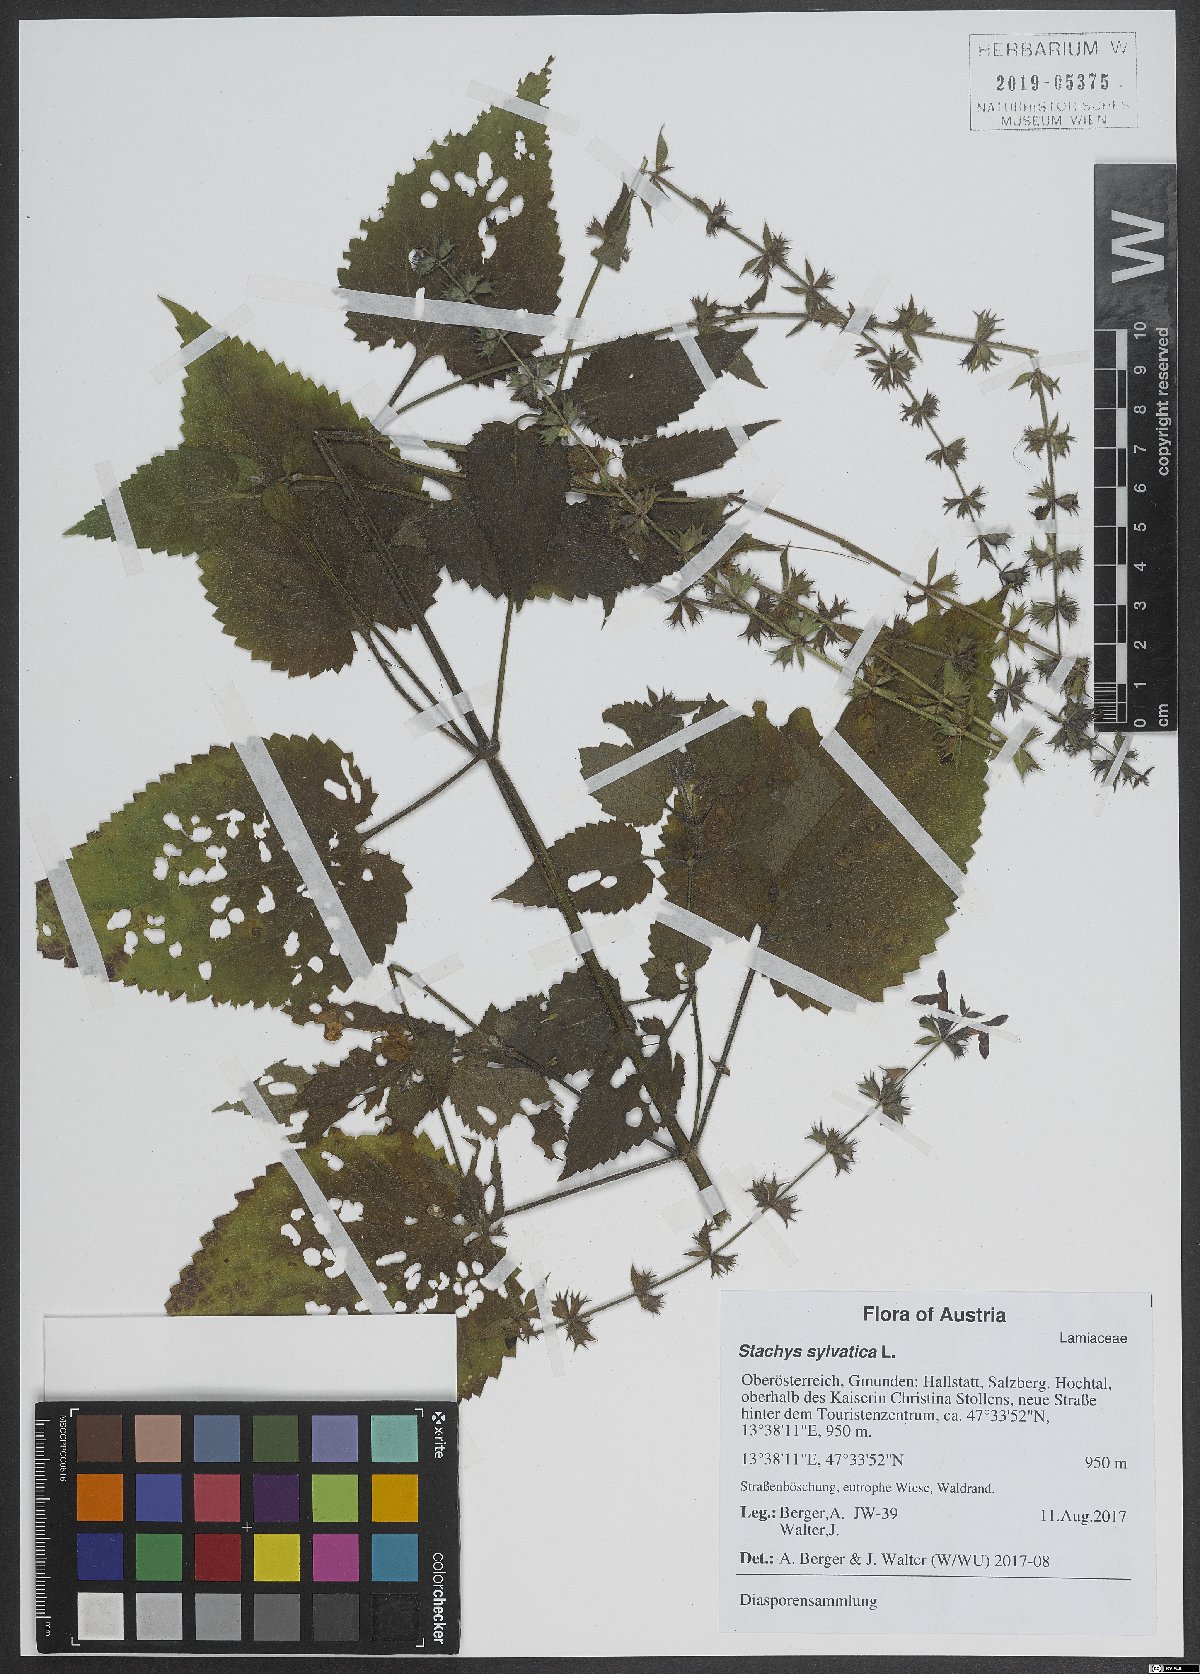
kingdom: Plantae
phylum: Tracheophyta
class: Magnoliopsida
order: Lamiales
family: Lamiaceae
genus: Stachys
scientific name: Stachys sylvatica
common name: Hedge woundwort
